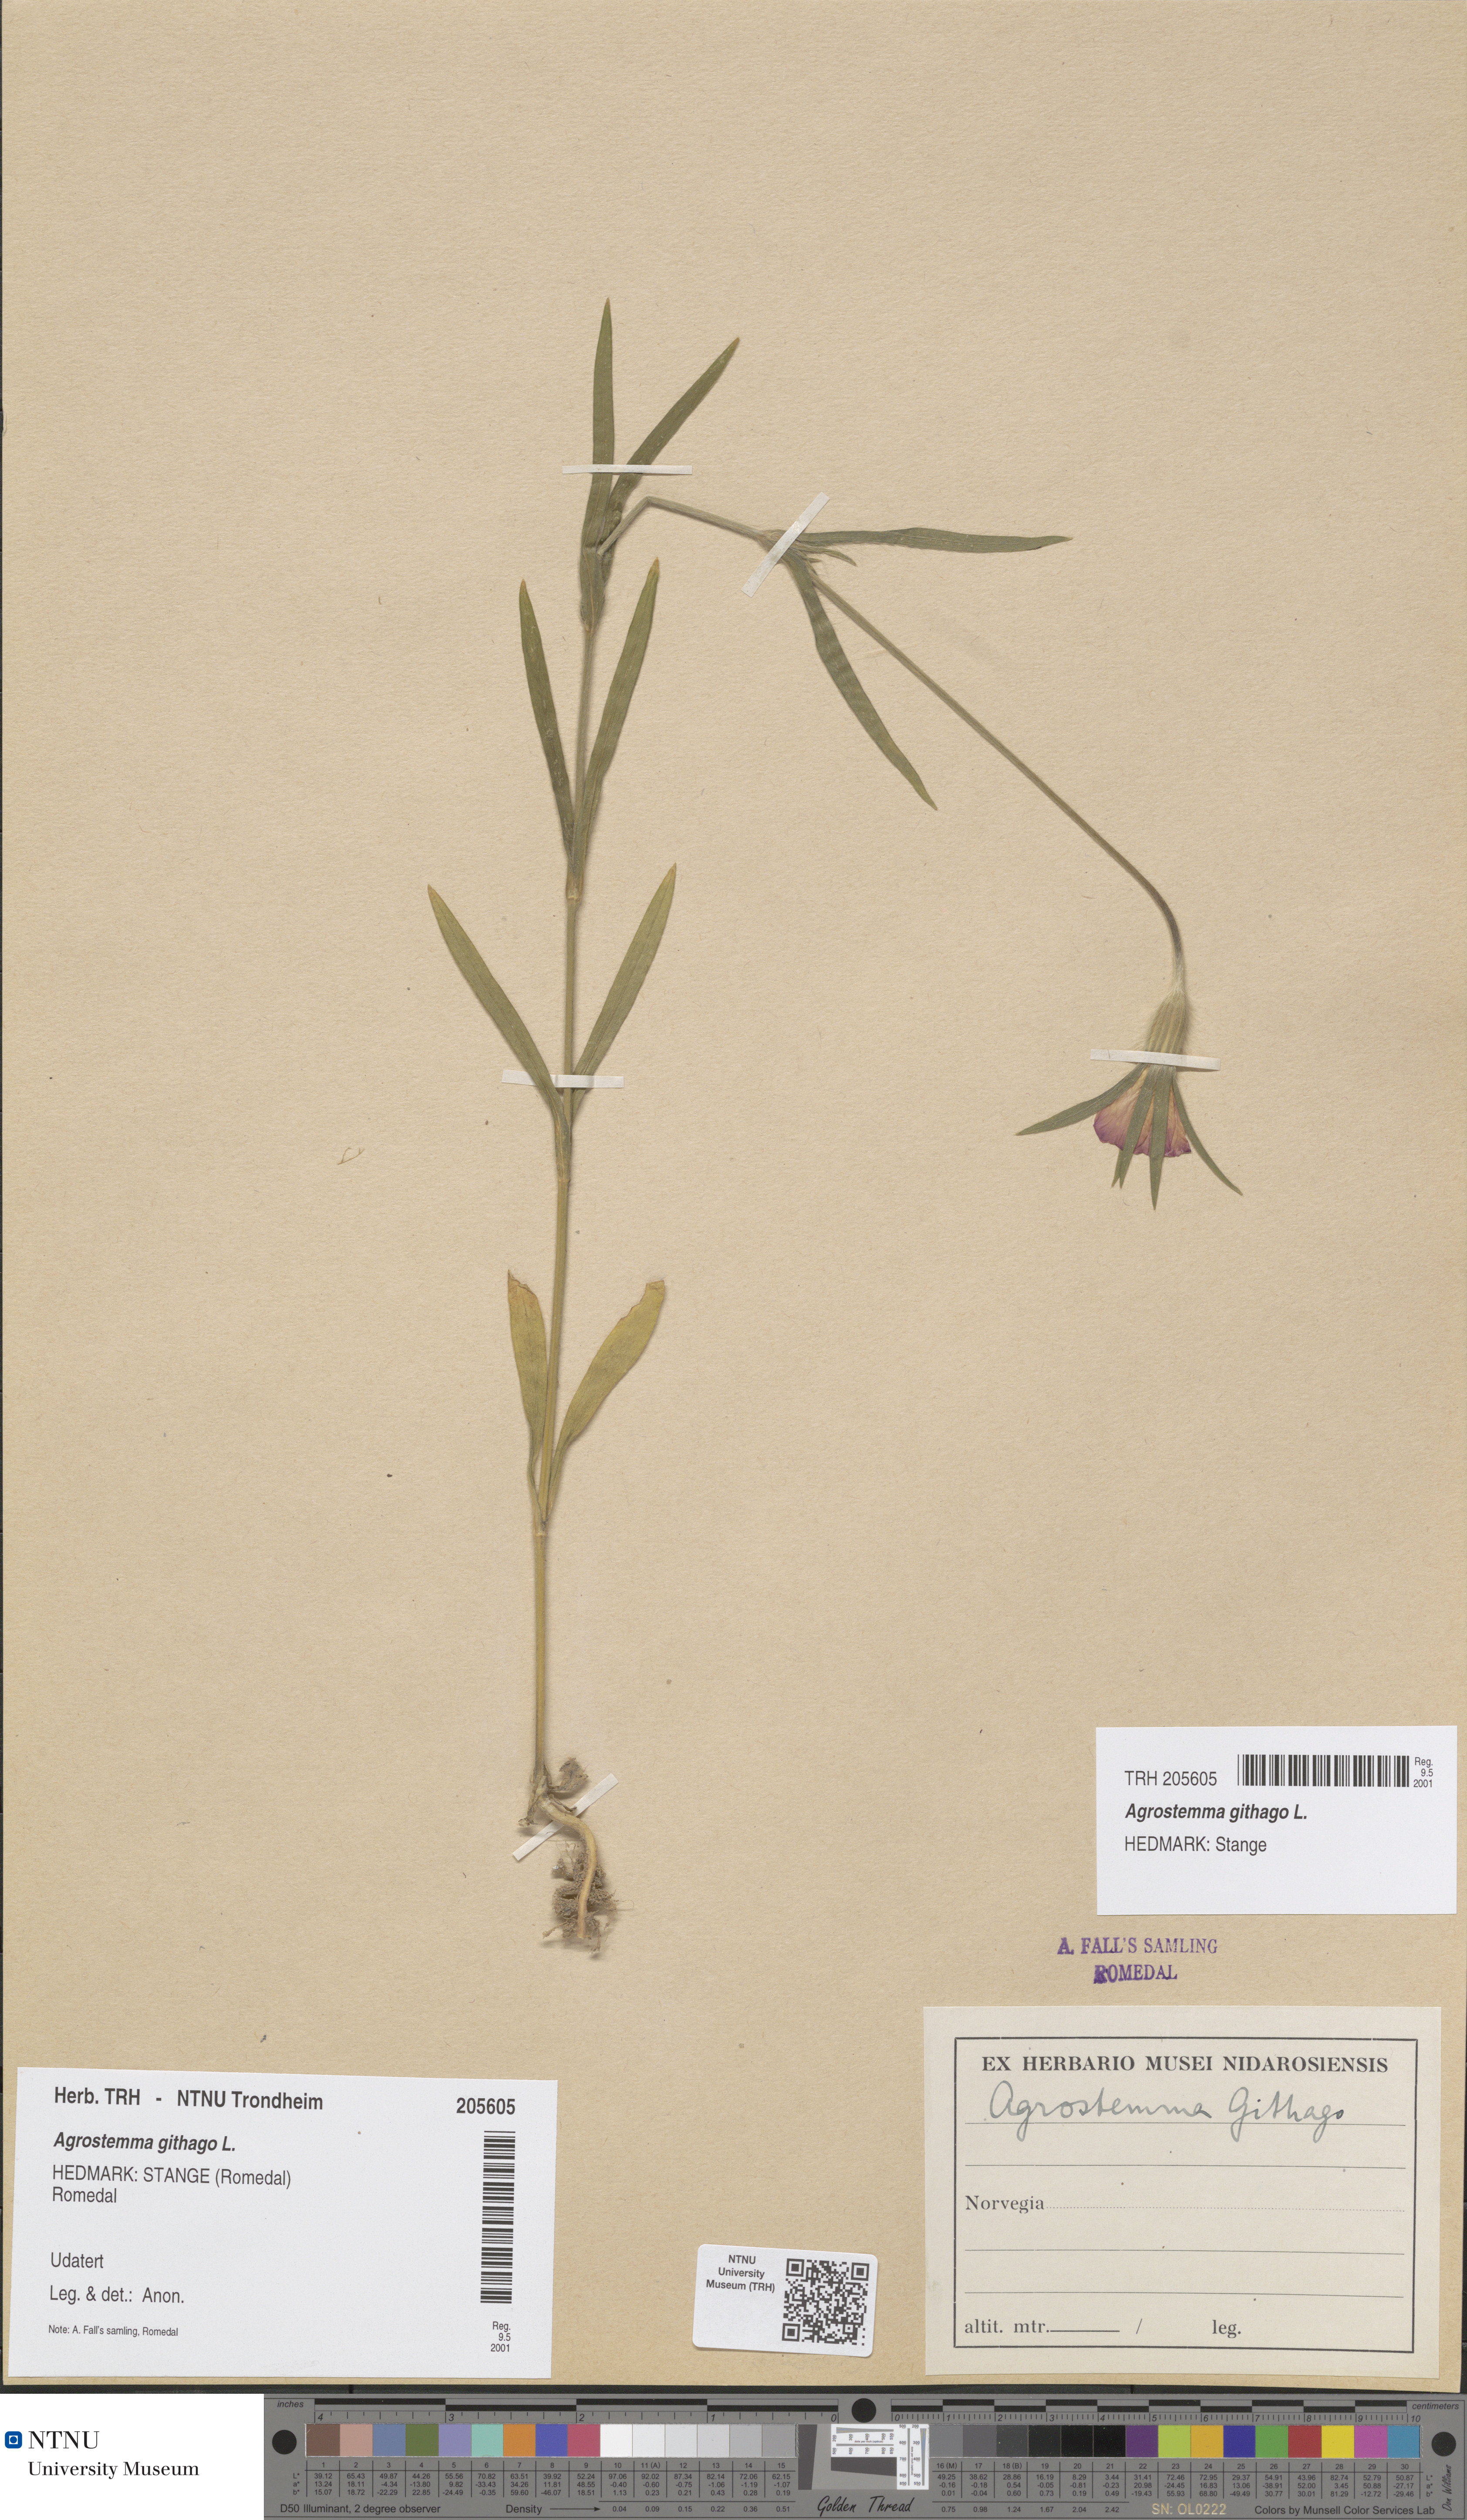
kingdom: Plantae
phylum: Tracheophyta
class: Magnoliopsida
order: Caryophyllales
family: Caryophyllaceae
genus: Agrostemma
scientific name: Agrostemma githago
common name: Common corncockle
